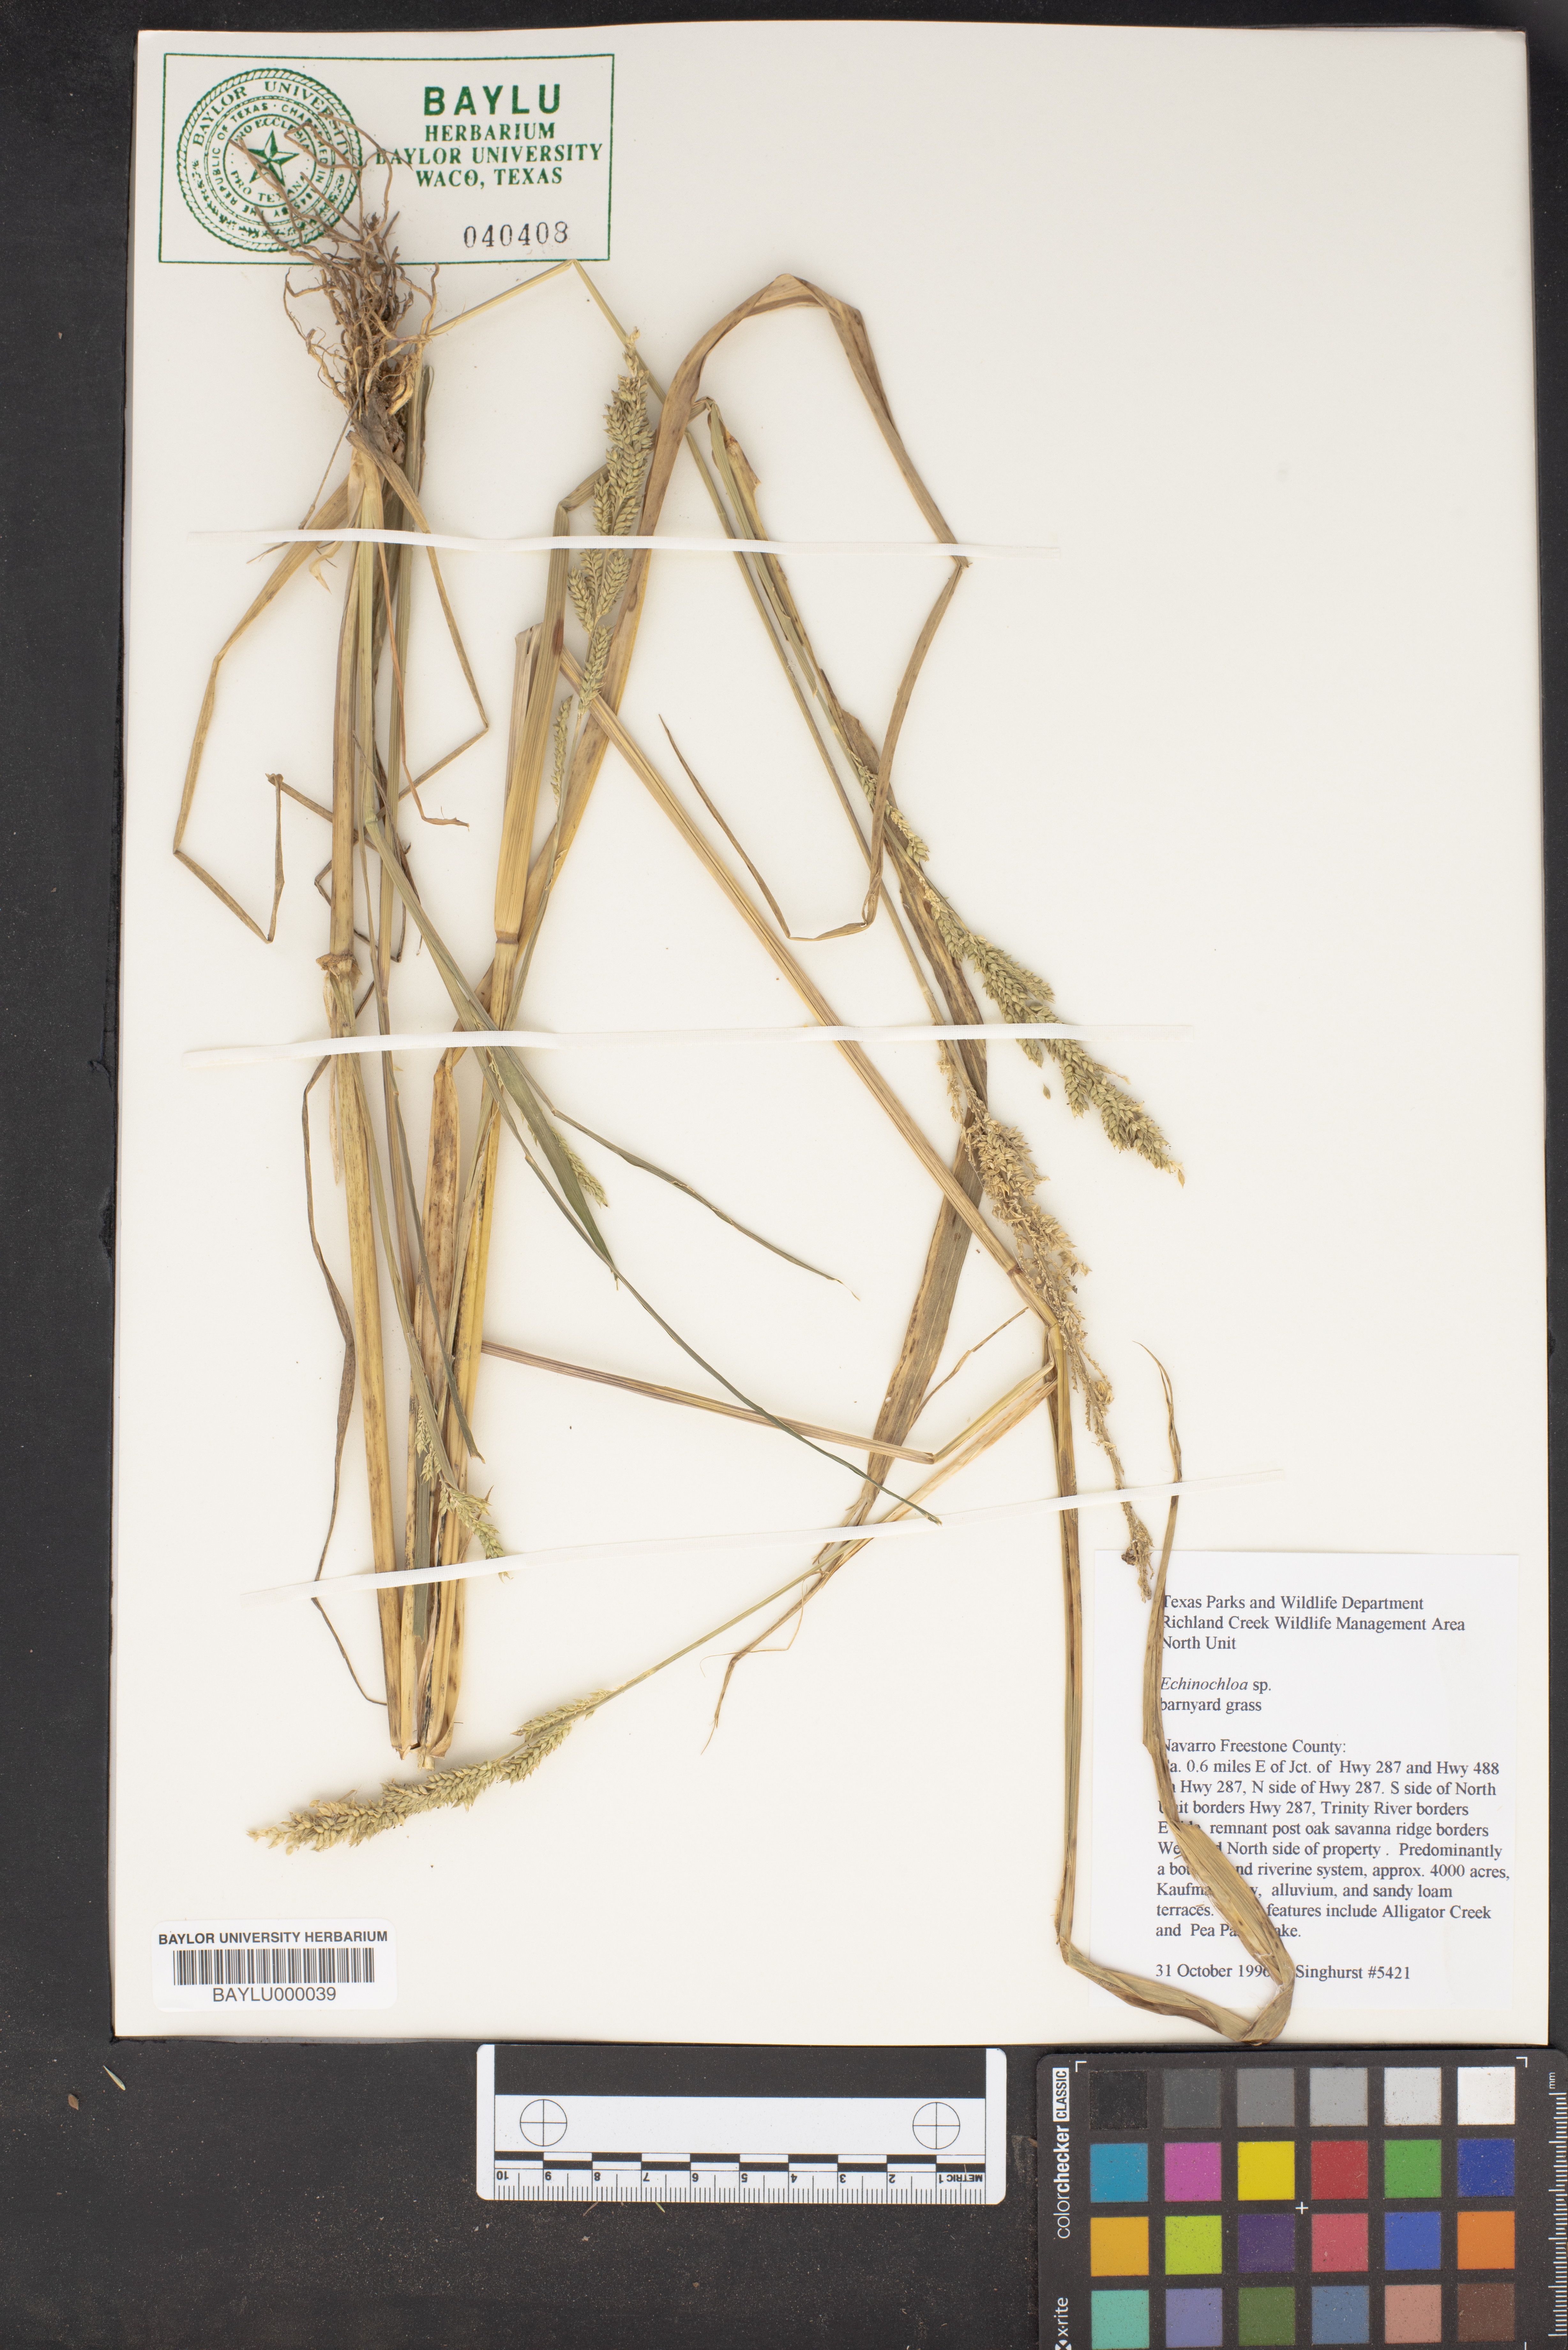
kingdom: Plantae
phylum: Tracheophyta
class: Liliopsida
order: Poales
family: Poaceae
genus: Echinochloa
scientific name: Echinochloa
